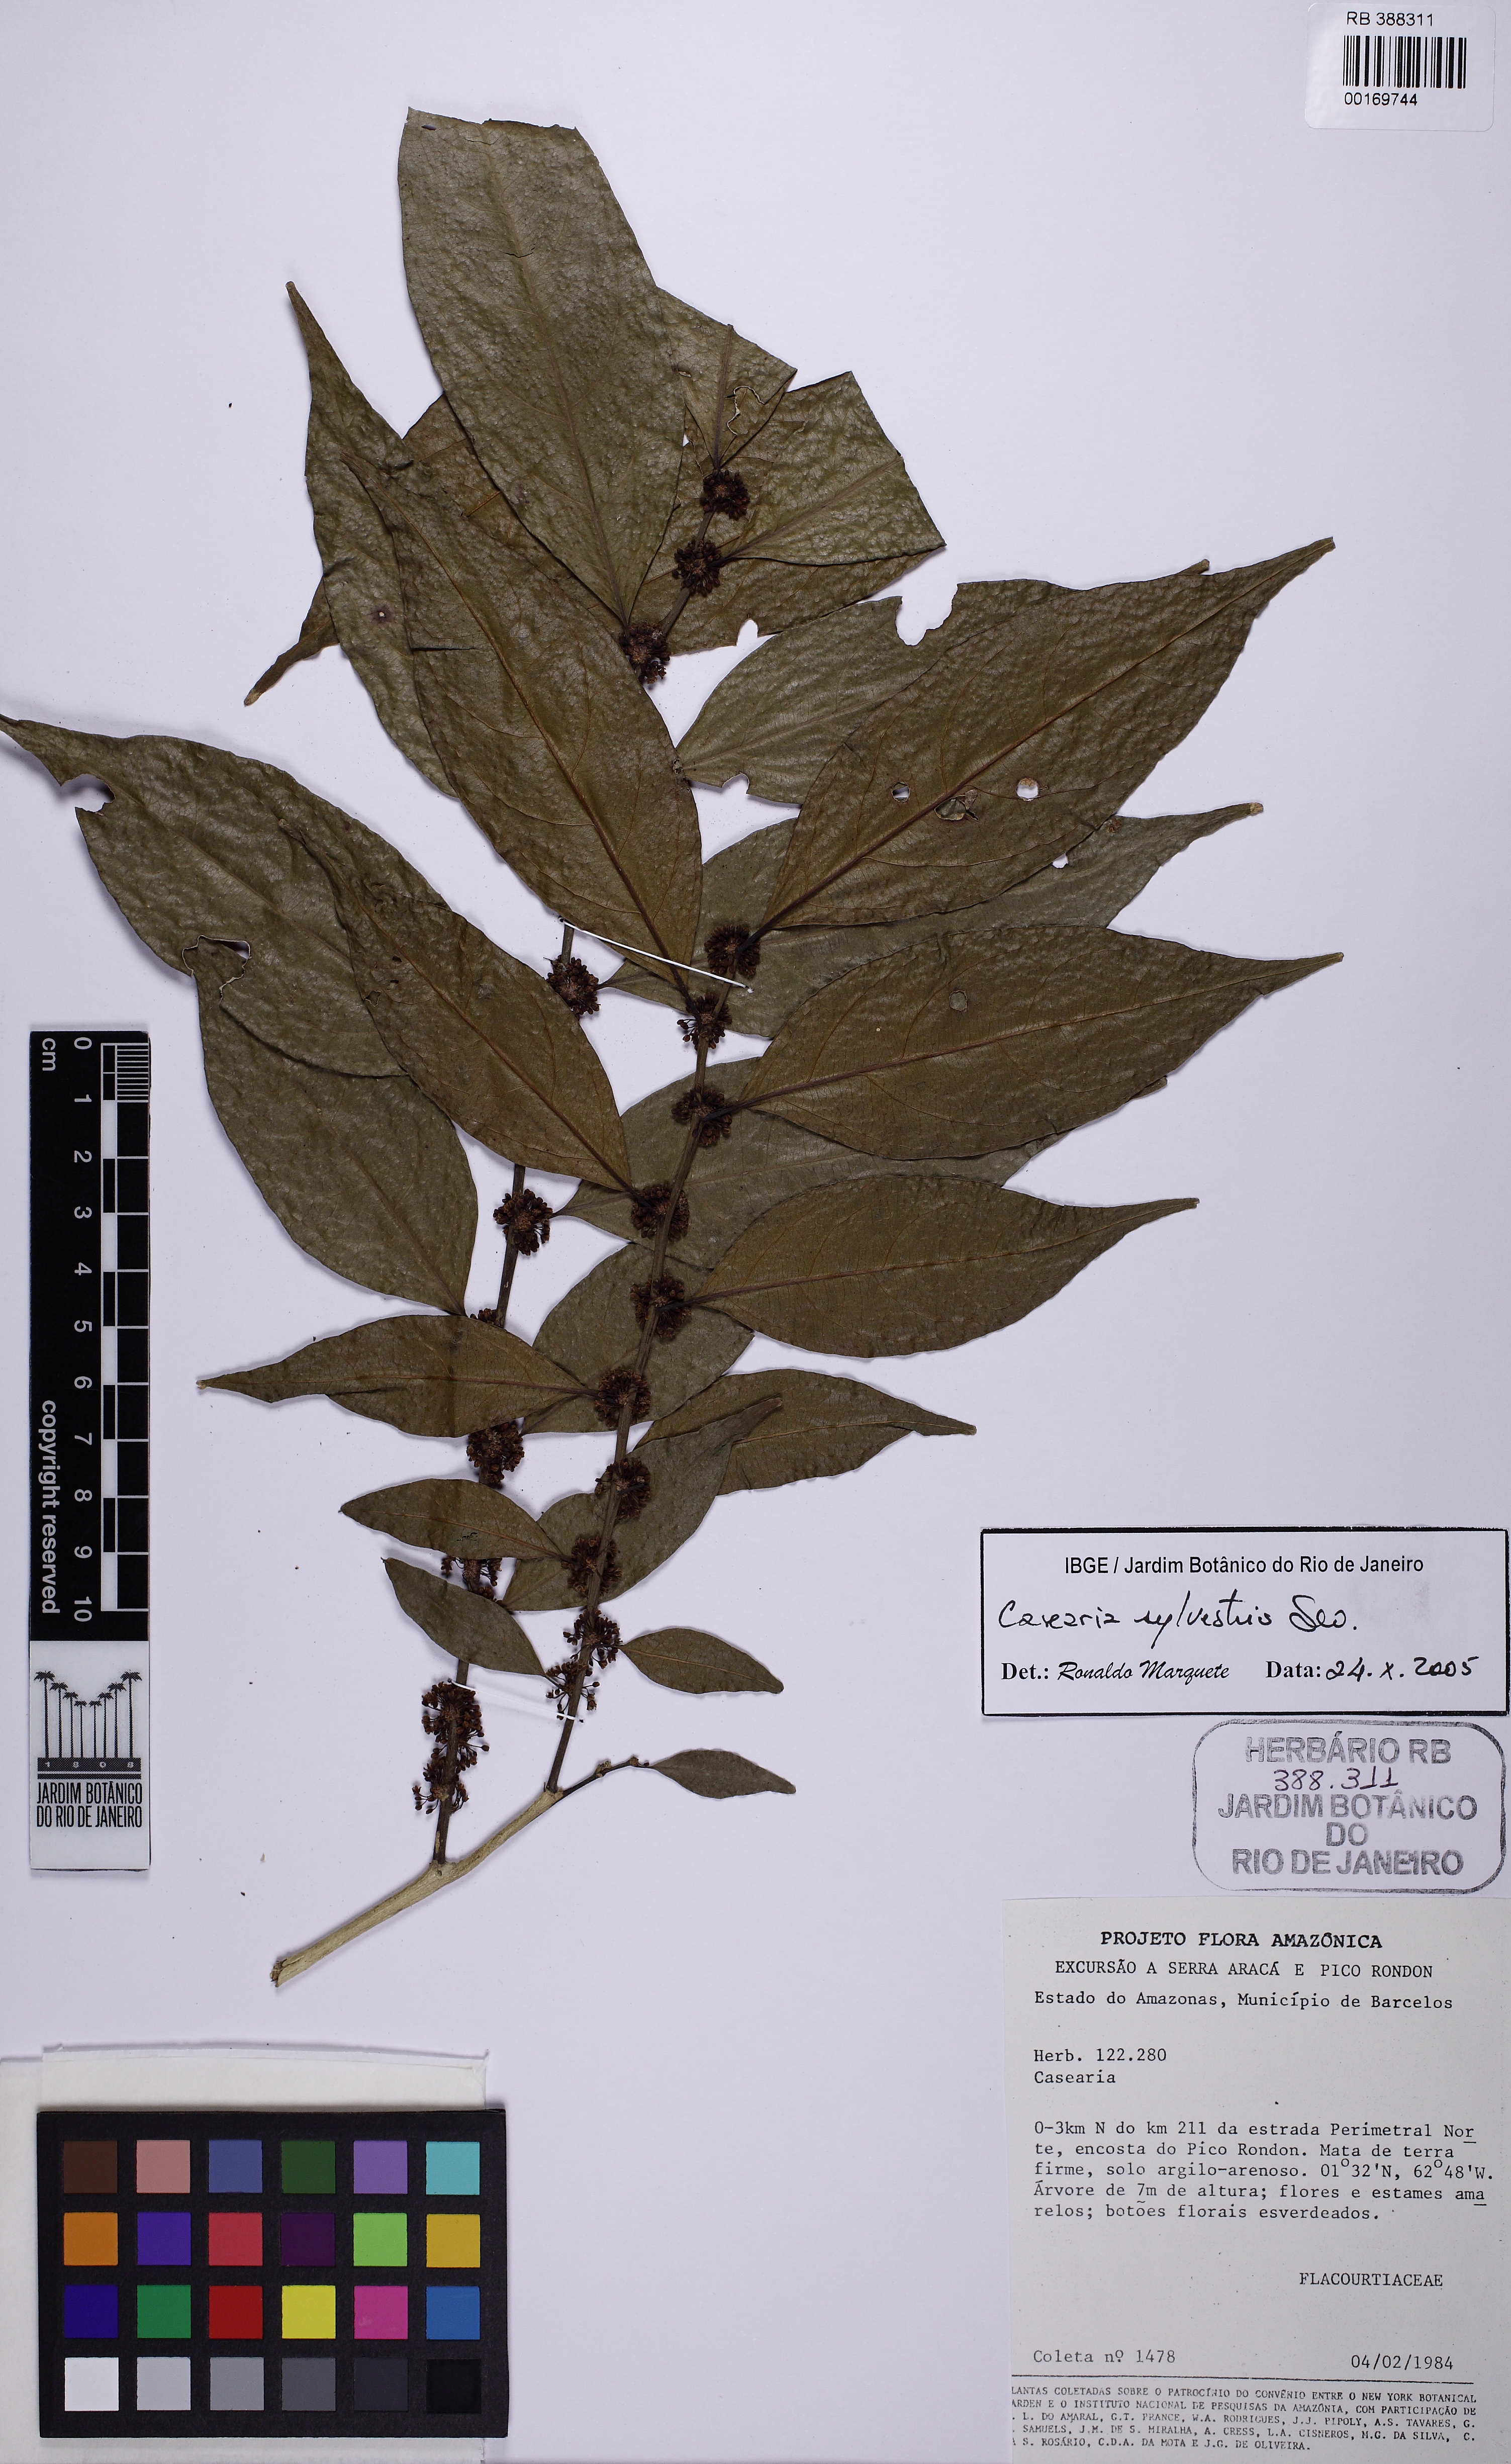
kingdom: Plantae
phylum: Tracheophyta
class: Magnoliopsida
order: Malpighiales
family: Salicaceae
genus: Casearia
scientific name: Casearia sylvestris
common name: Wild sage
